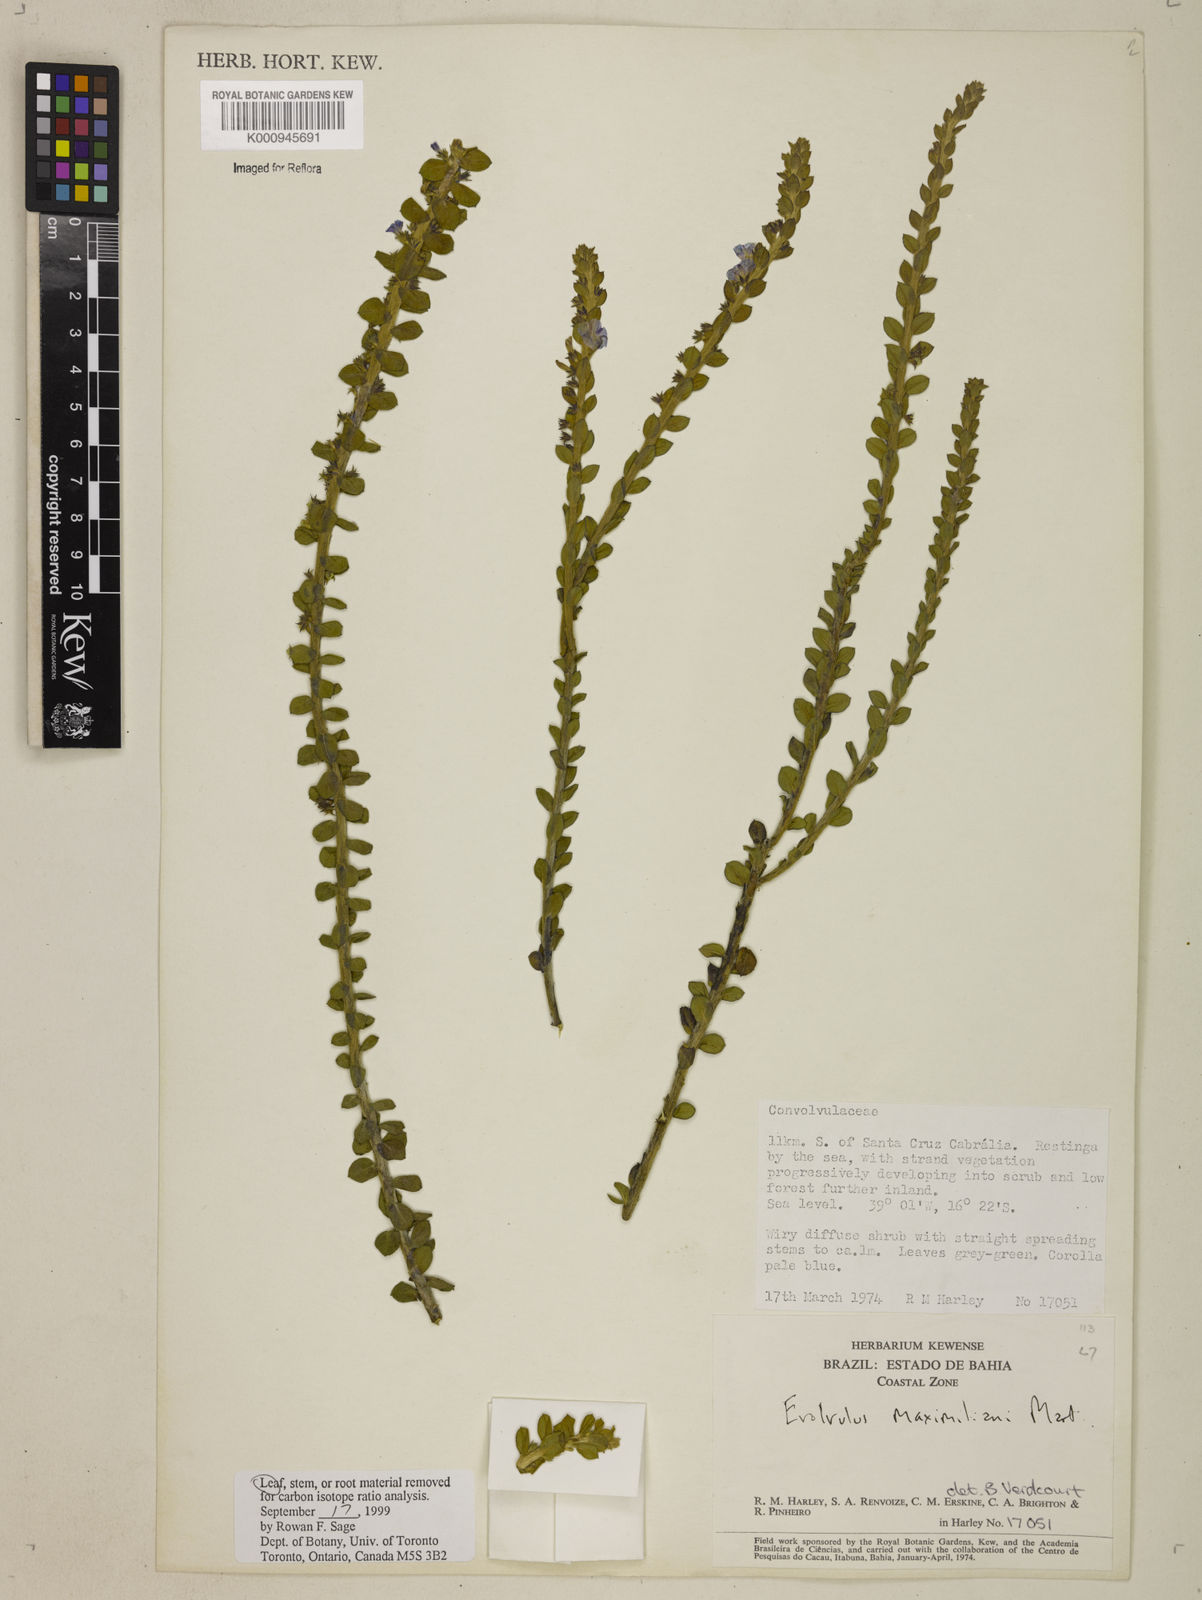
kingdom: Plantae
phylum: Tracheophyta
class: Magnoliopsida
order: Solanales
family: Convolvulaceae
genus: Evolvulus
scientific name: Evolvulus maximiliani
